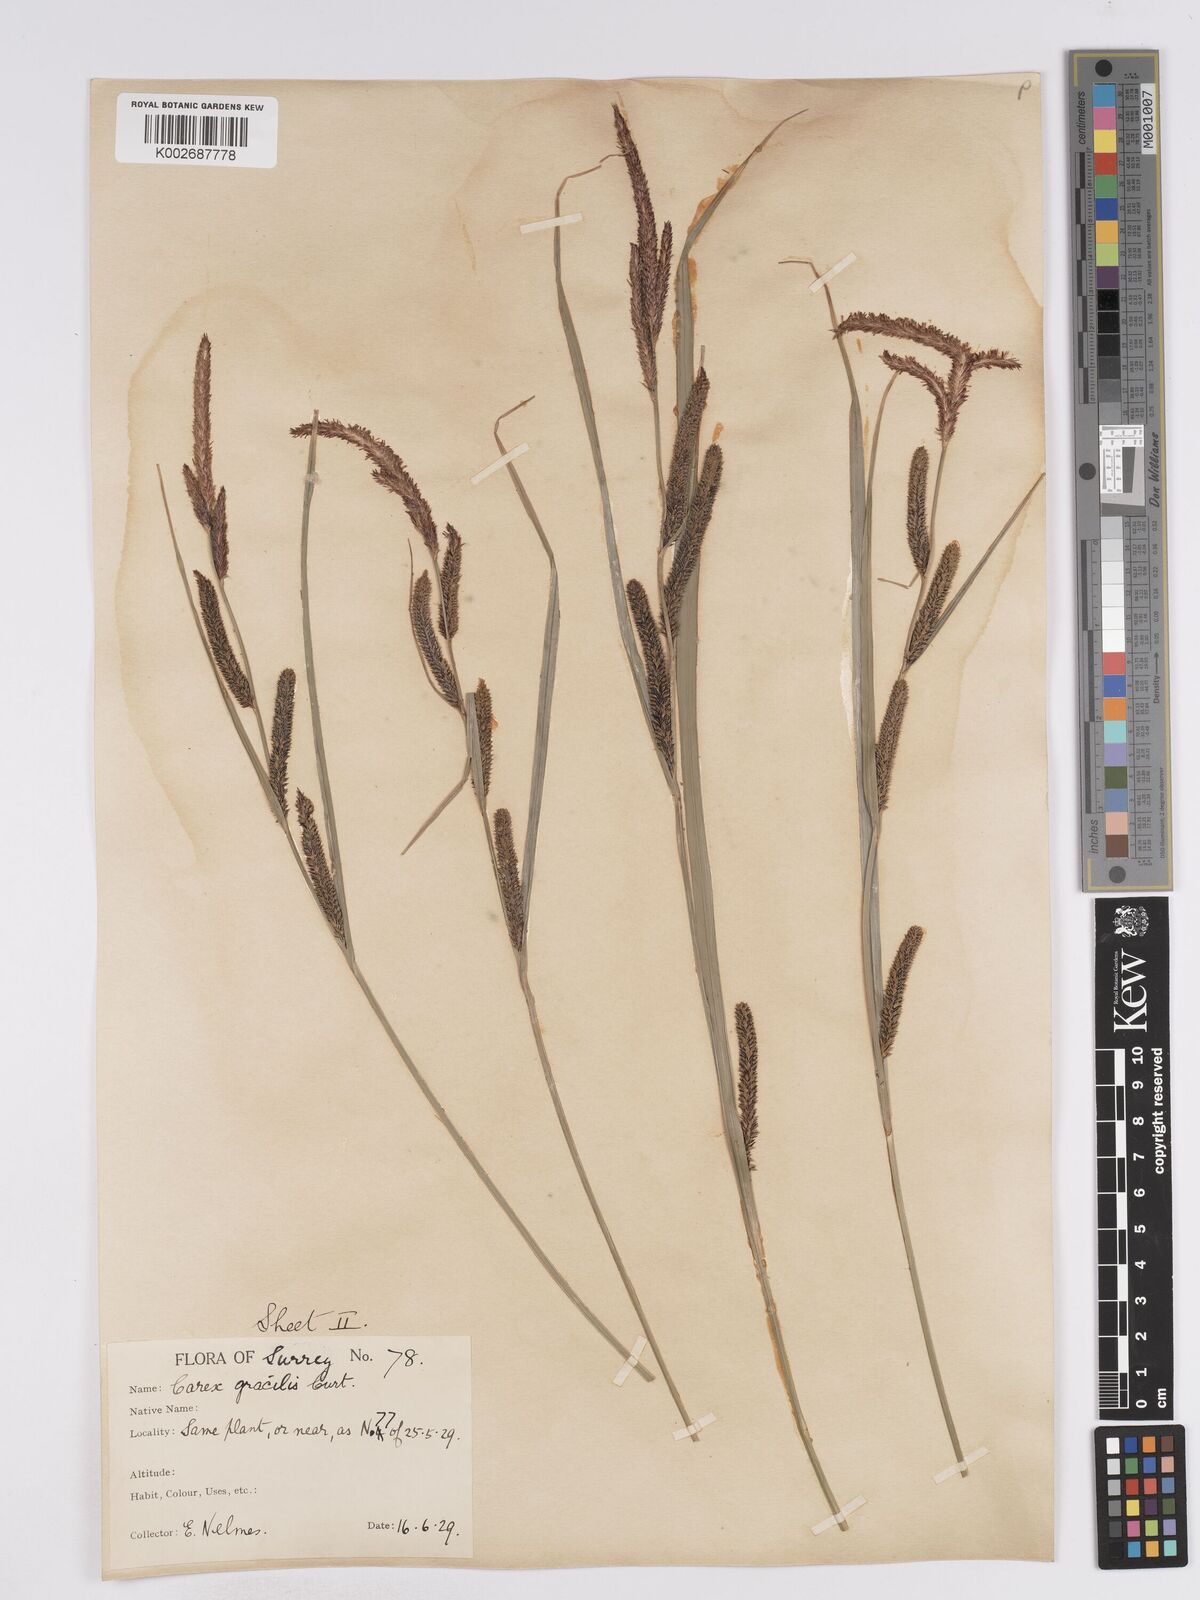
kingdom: Plantae
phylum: Tracheophyta
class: Liliopsida
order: Poales
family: Cyperaceae
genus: Carex
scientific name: Carex acuta
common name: Slender tufted-sedge
